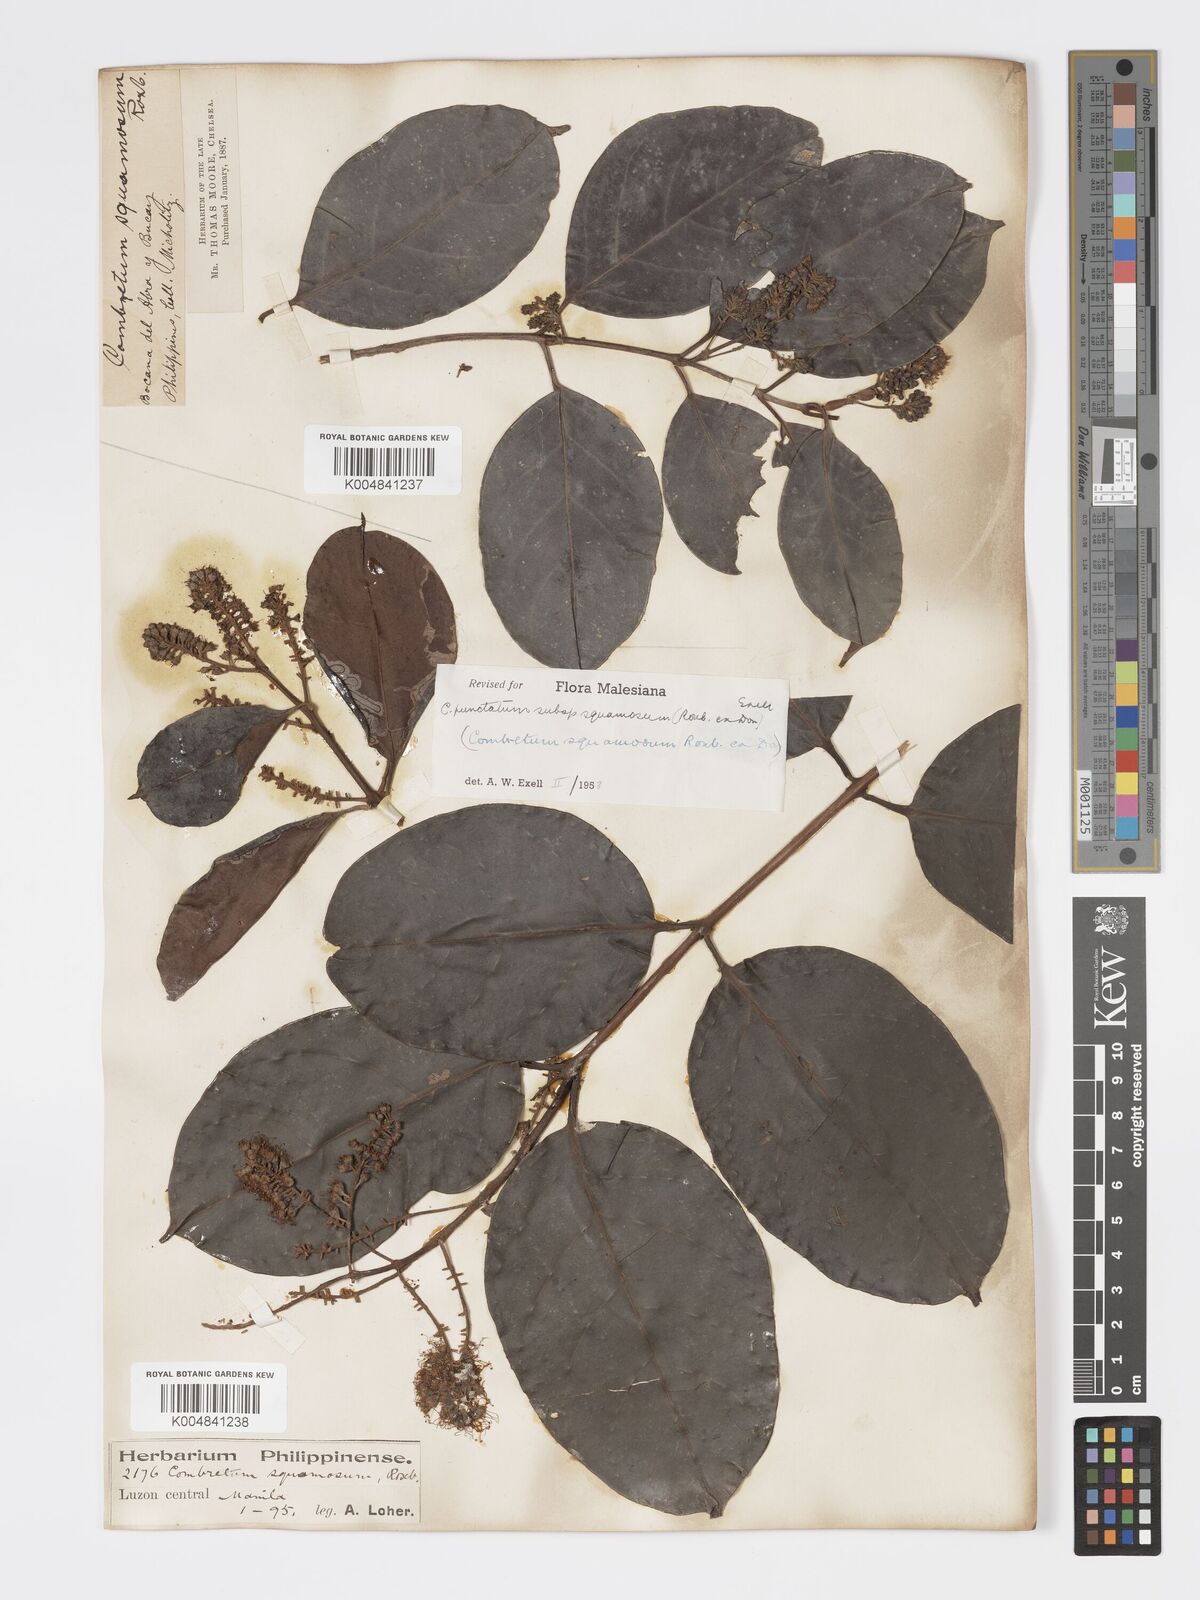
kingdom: Plantae
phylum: Tracheophyta
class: Magnoliopsida
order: Myrtales
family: Combretaceae
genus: Combretum
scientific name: Combretum
